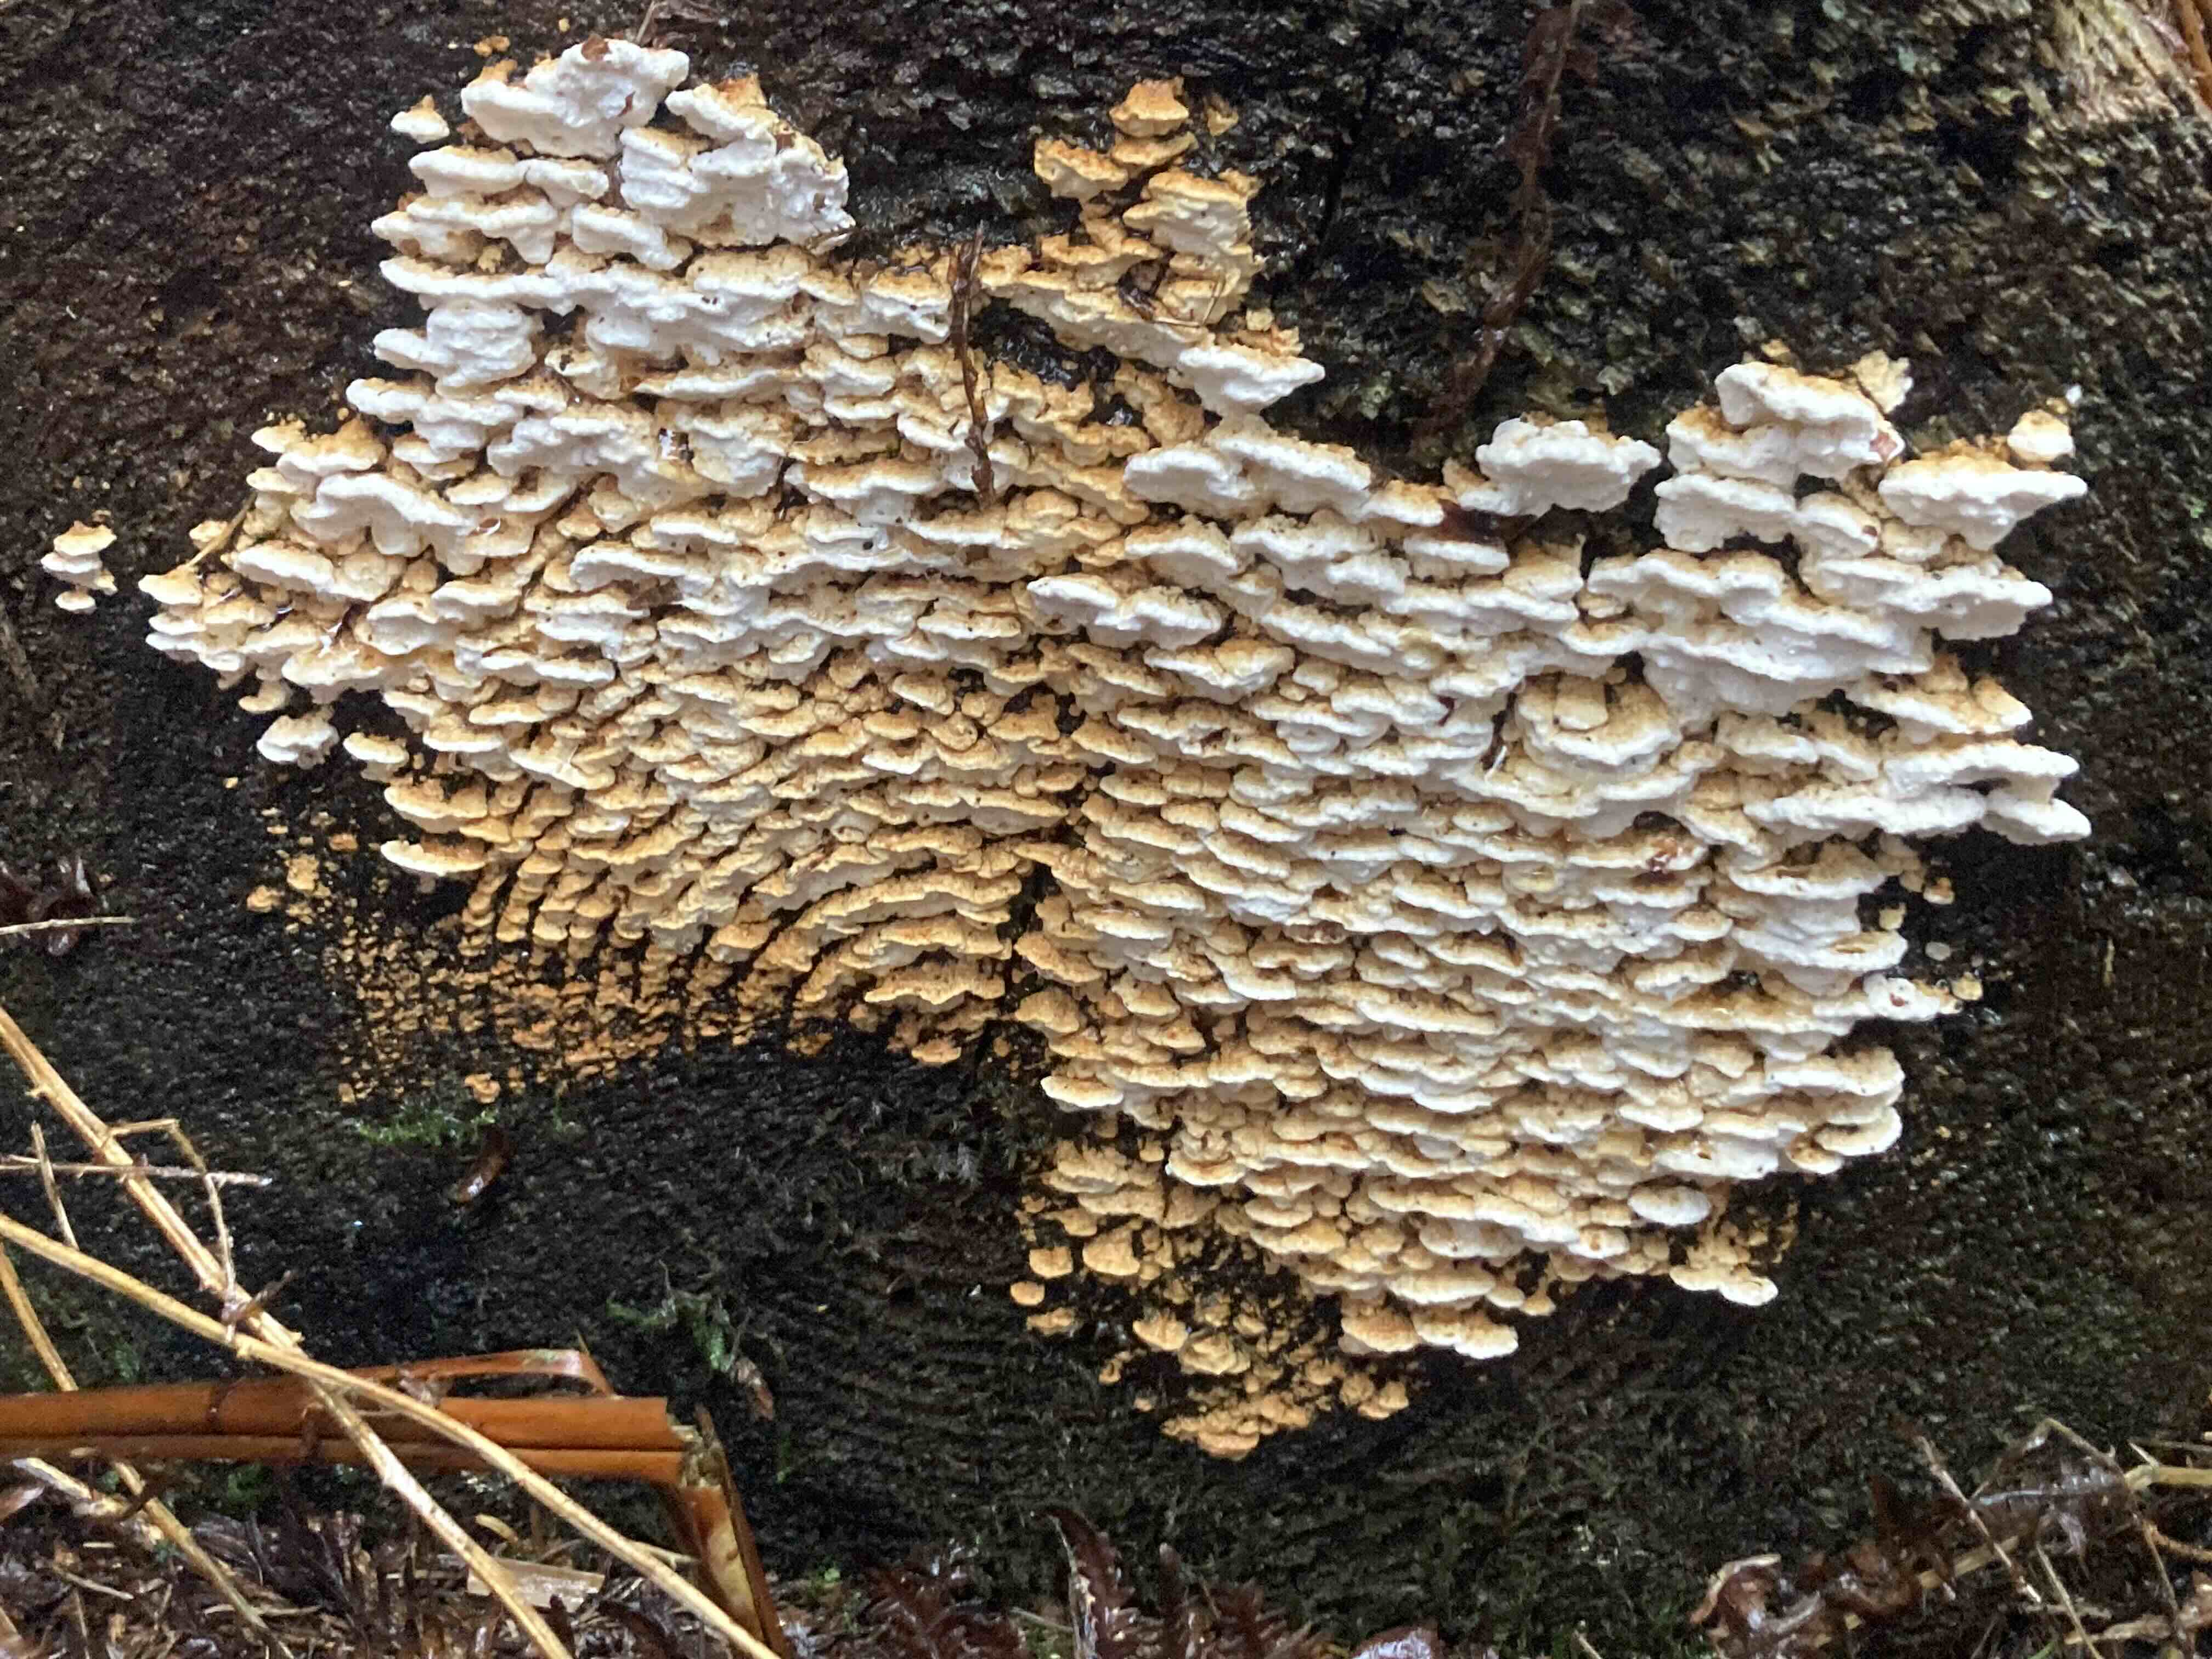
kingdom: Fungi
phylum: Basidiomycota
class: Agaricomycetes
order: Polyporales
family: Fomitopsidaceae
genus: Neoantrodia
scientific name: Neoantrodia serialis
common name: række-sejporesvamp
